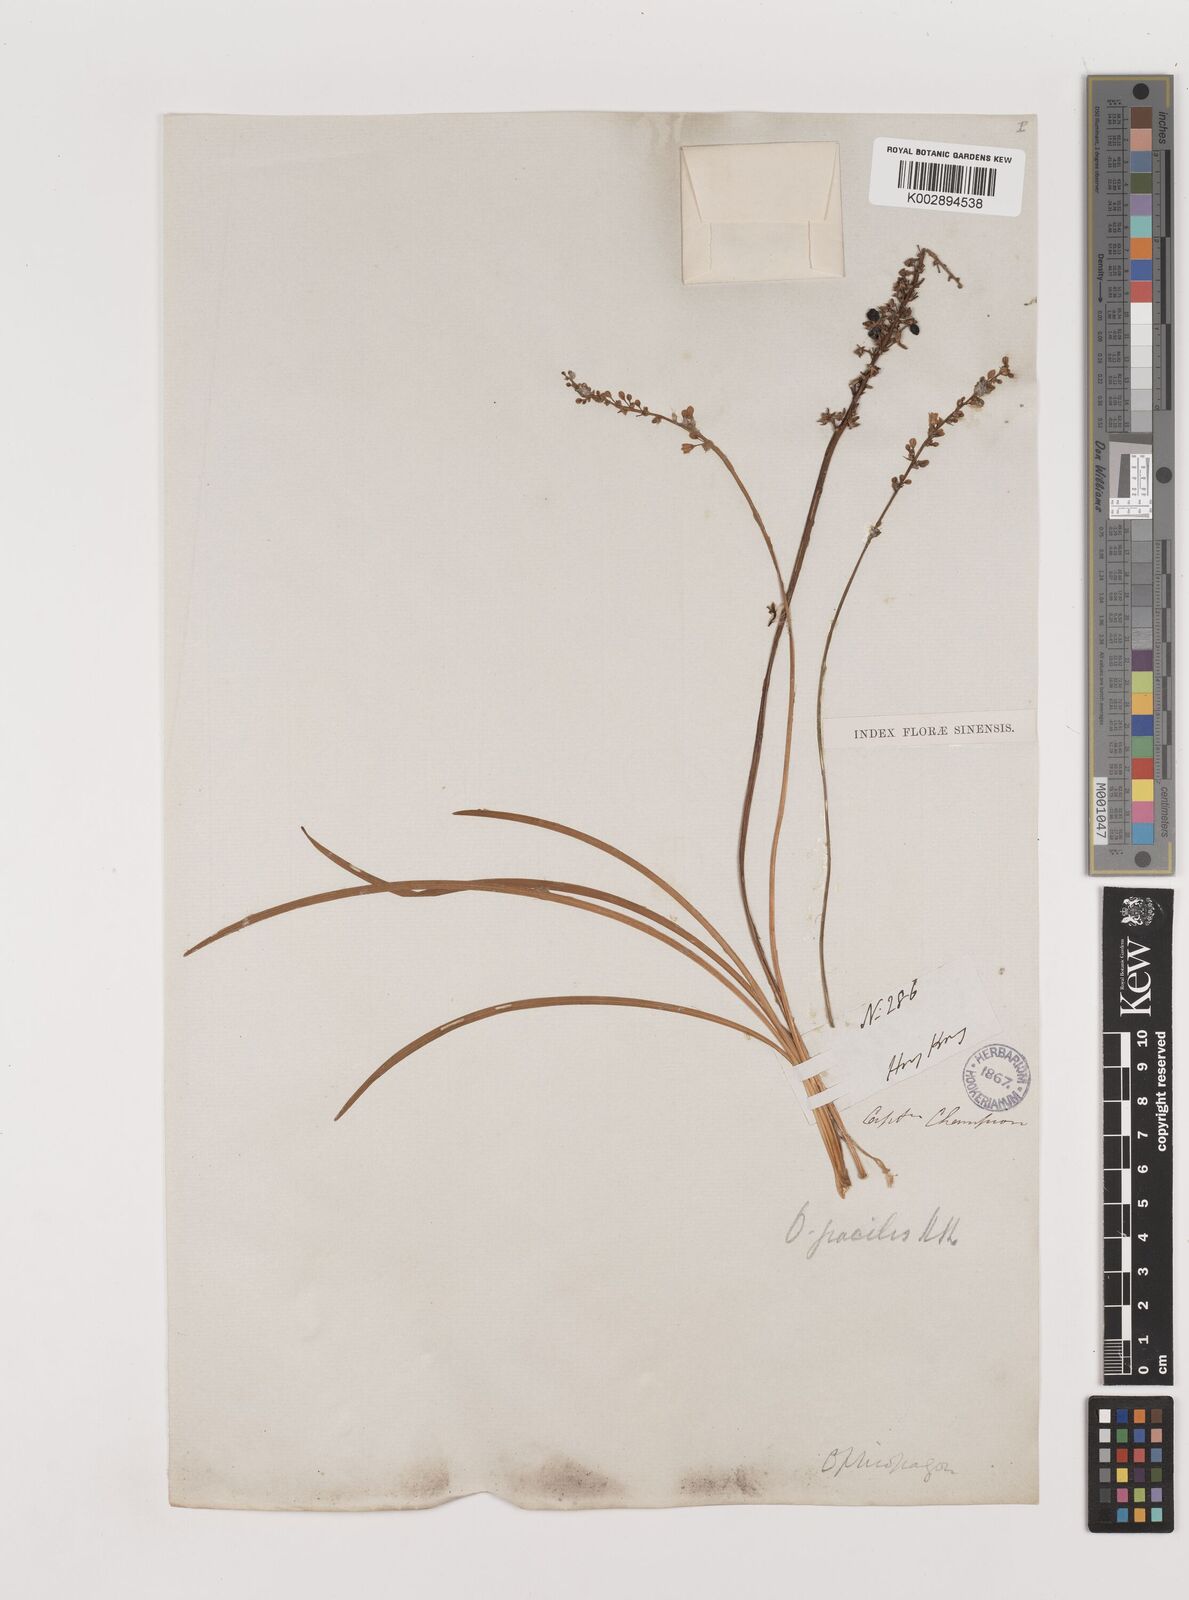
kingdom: Plantae
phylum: Tracheophyta
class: Liliopsida
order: Asparagales
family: Asparagaceae
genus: Liriope
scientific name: Liriope spicata
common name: Creeping liriope
